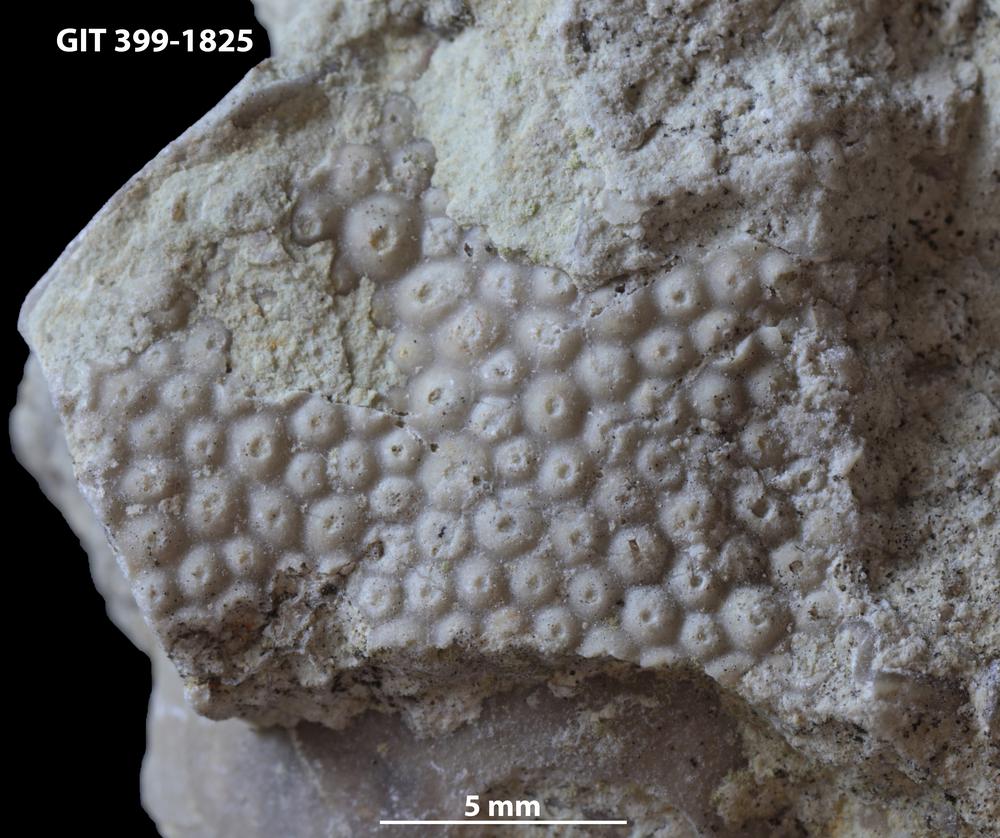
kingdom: Plantae
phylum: Chlorophyta
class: Ulvophyceae
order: Cyclocrinales
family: Cyclocrinaceae
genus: Mastopora
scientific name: Mastopora concava
